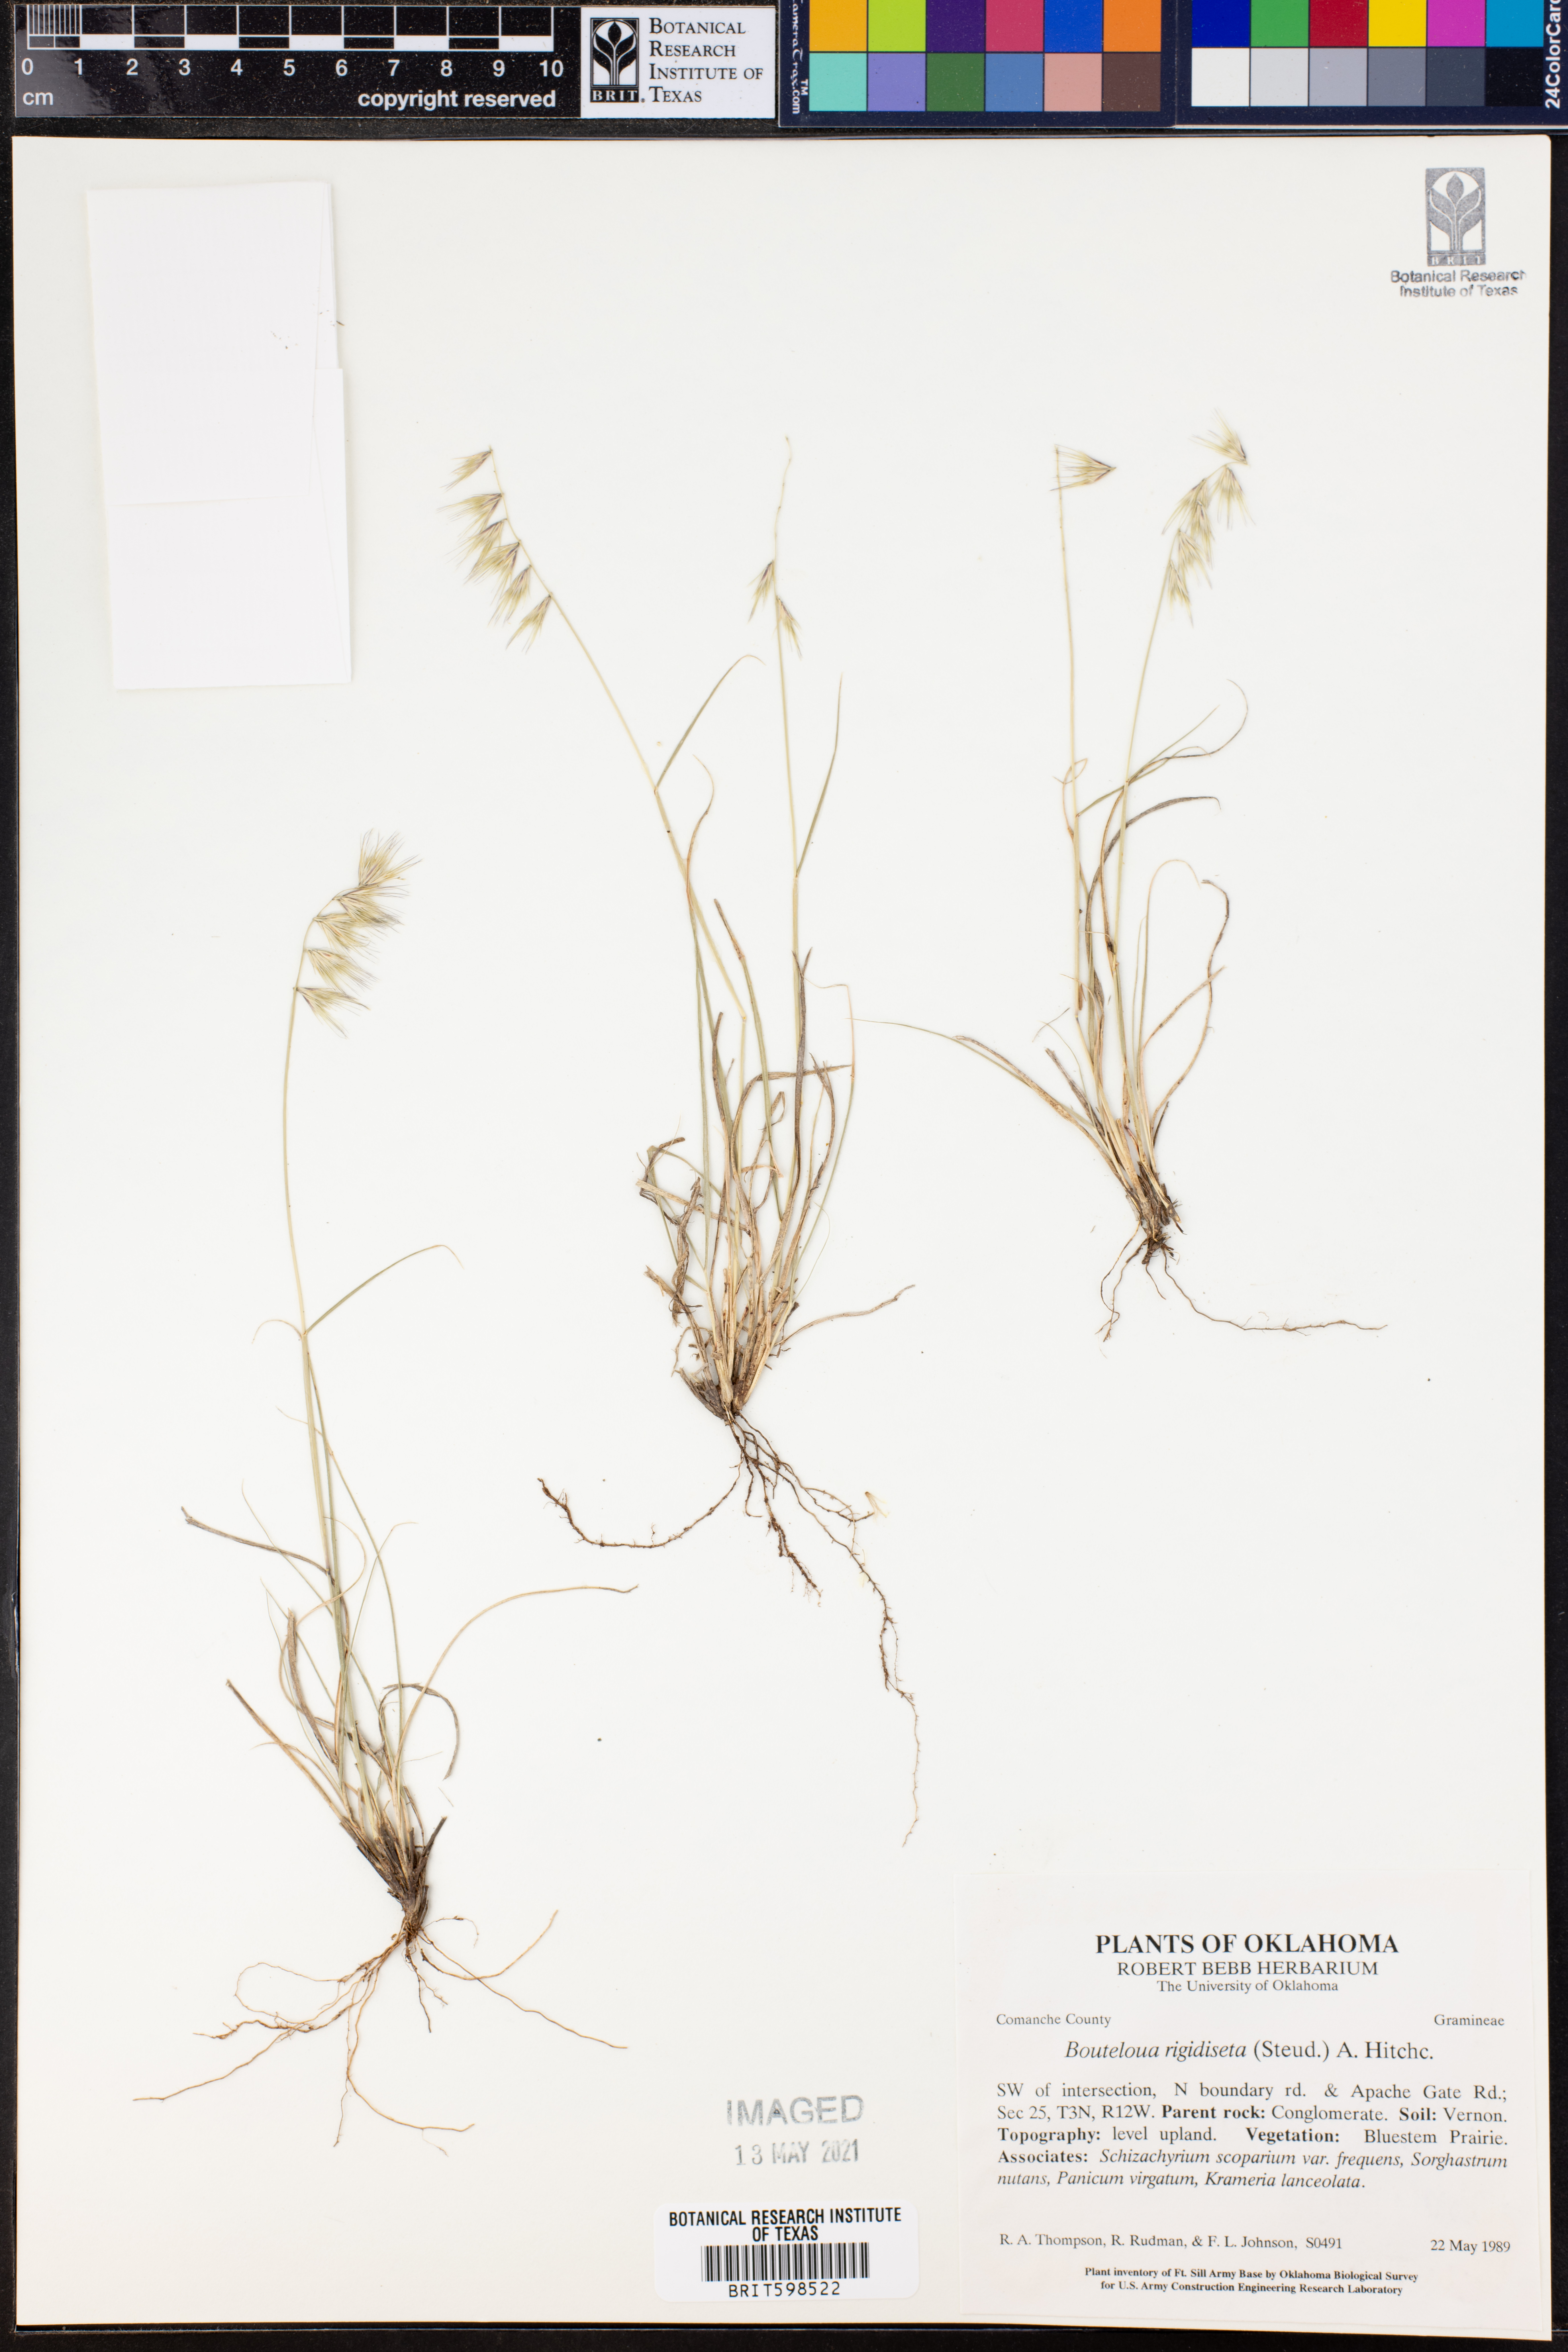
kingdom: Plantae
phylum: Tracheophyta
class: Liliopsida
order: Poales
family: Poaceae
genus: Bouteloua
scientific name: Bouteloua rigidiseta
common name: Texas grama
